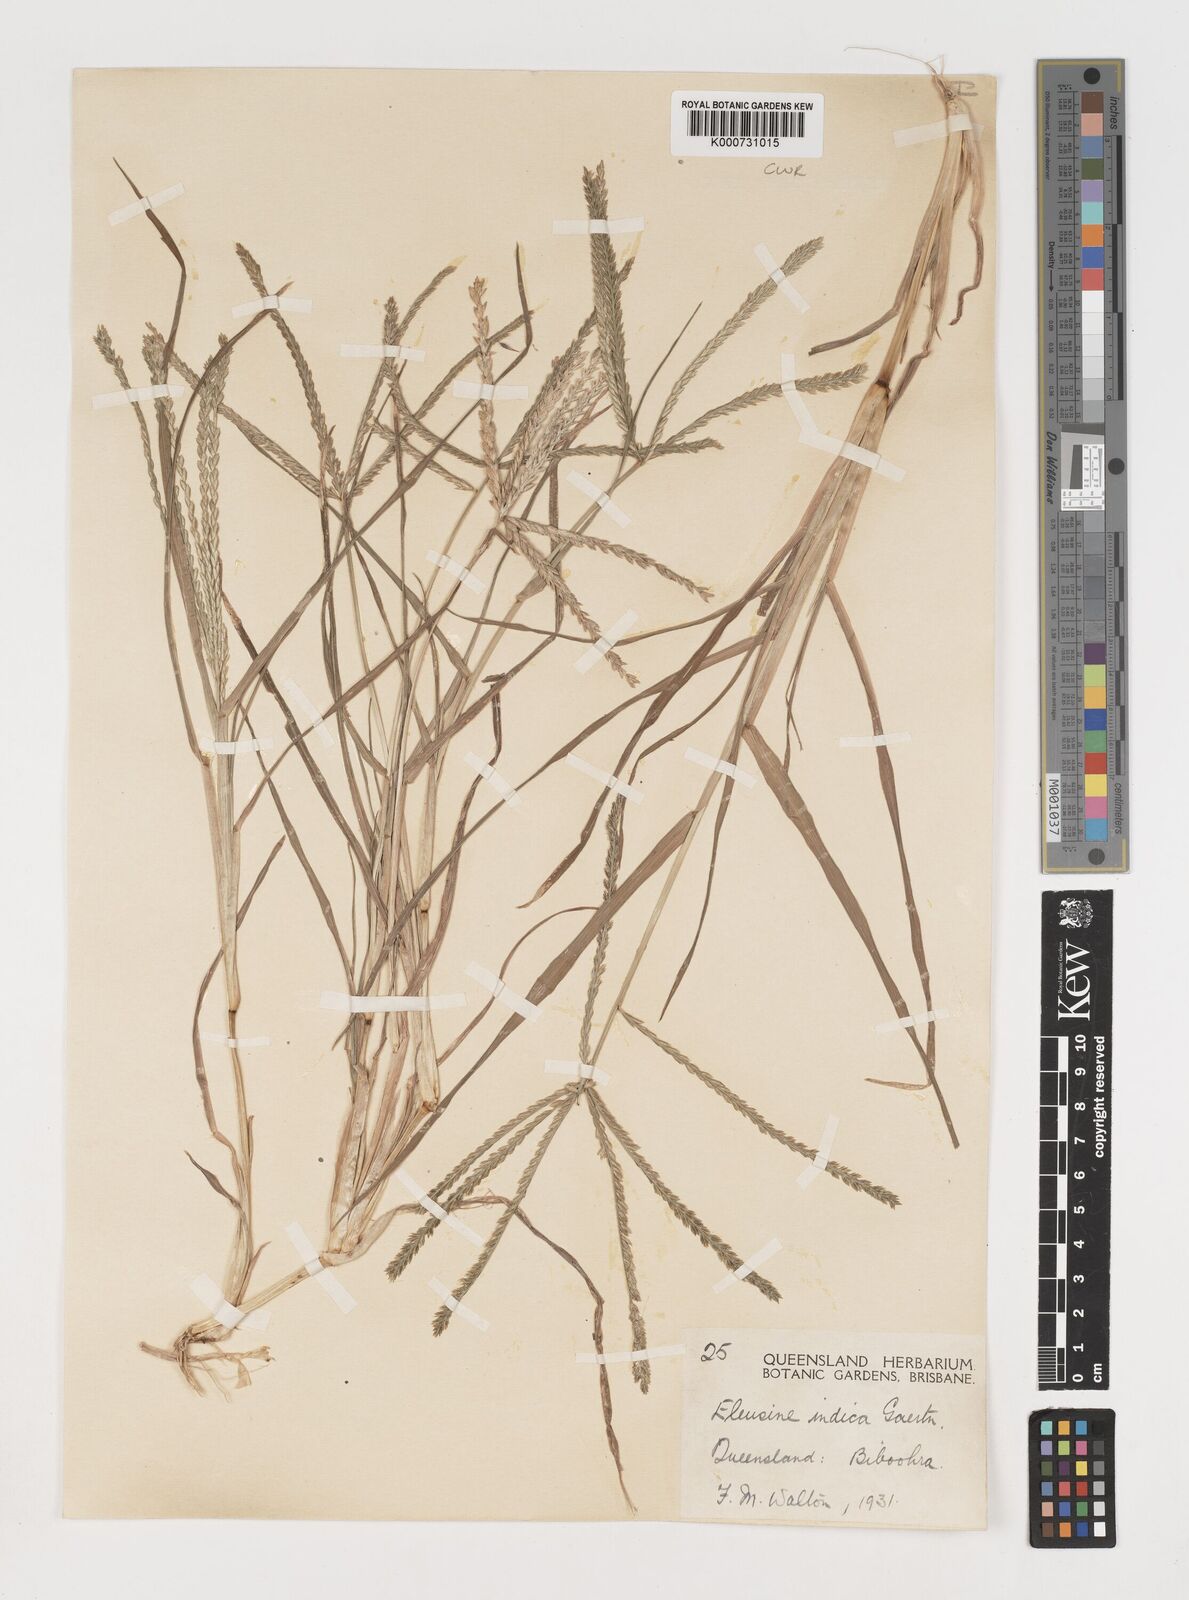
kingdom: Plantae
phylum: Tracheophyta
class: Liliopsida
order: Poales
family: Poaceae
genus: Eleusine
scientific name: Eleusine indica
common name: Yard-grass
